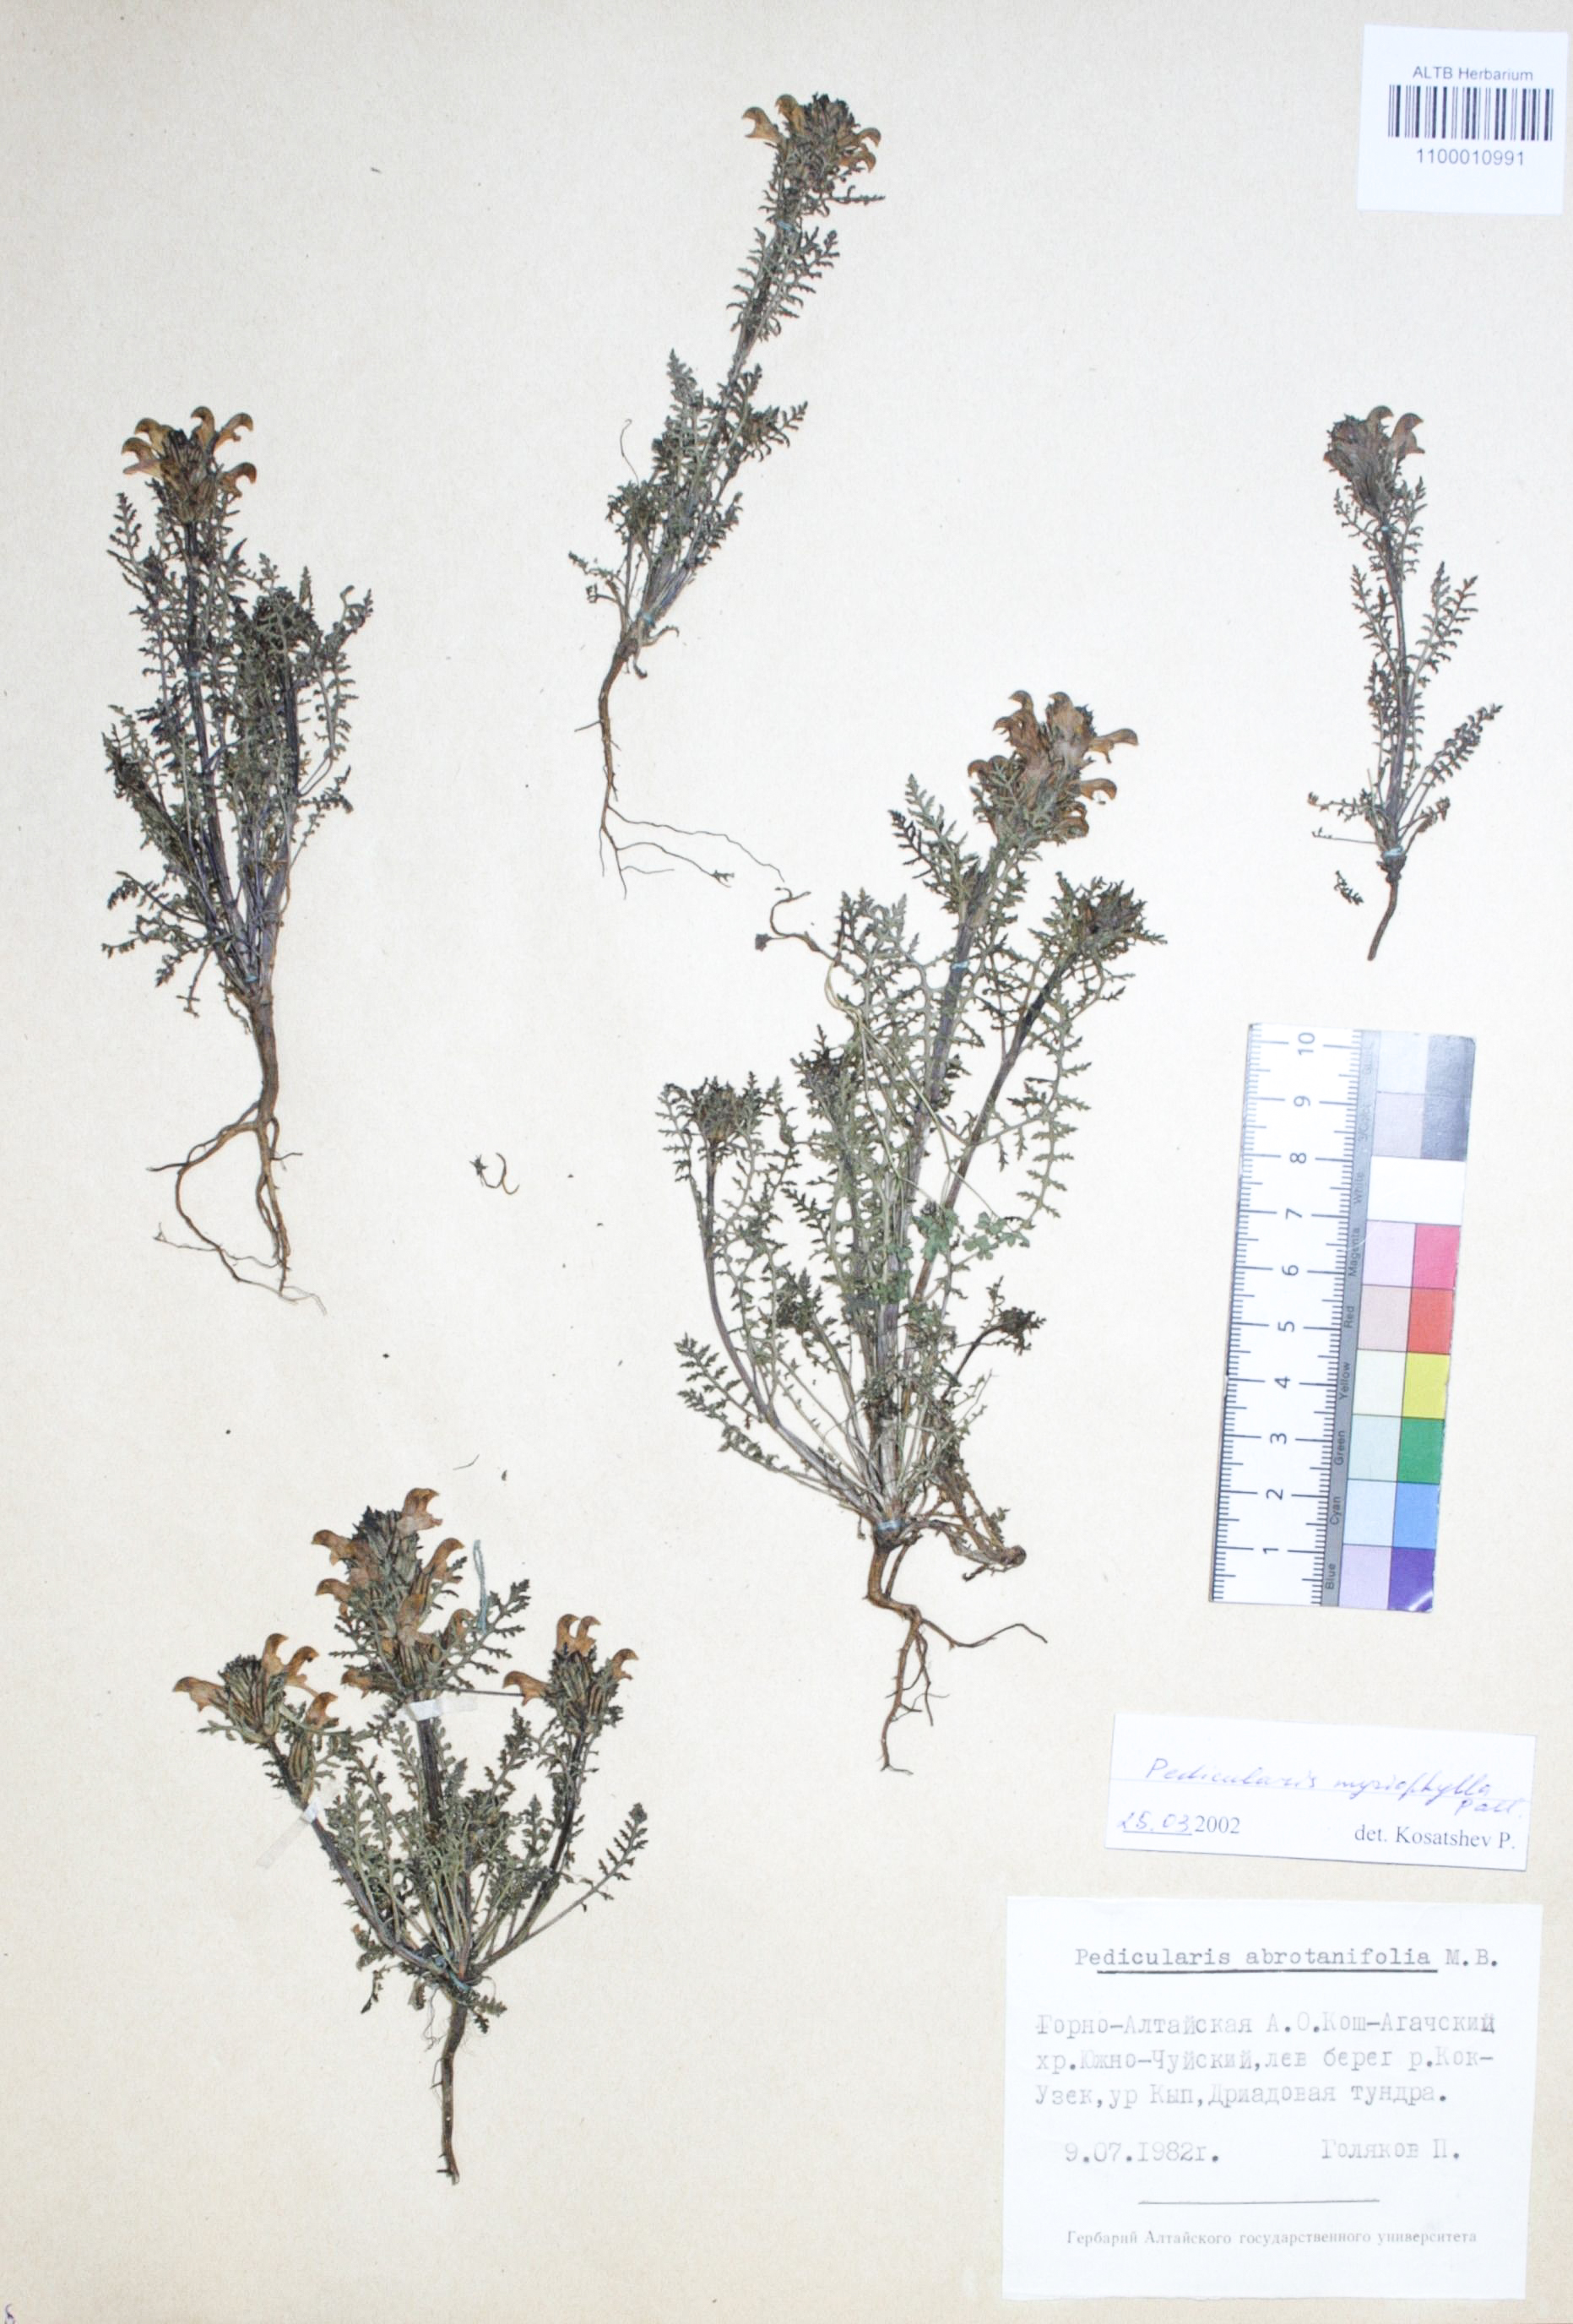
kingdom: Plantae
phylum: Tracheophyta
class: Magnoliopsida
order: Lamiales
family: Orobanchaceae
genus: Pedicularis
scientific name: Pedicularis myriophylla
